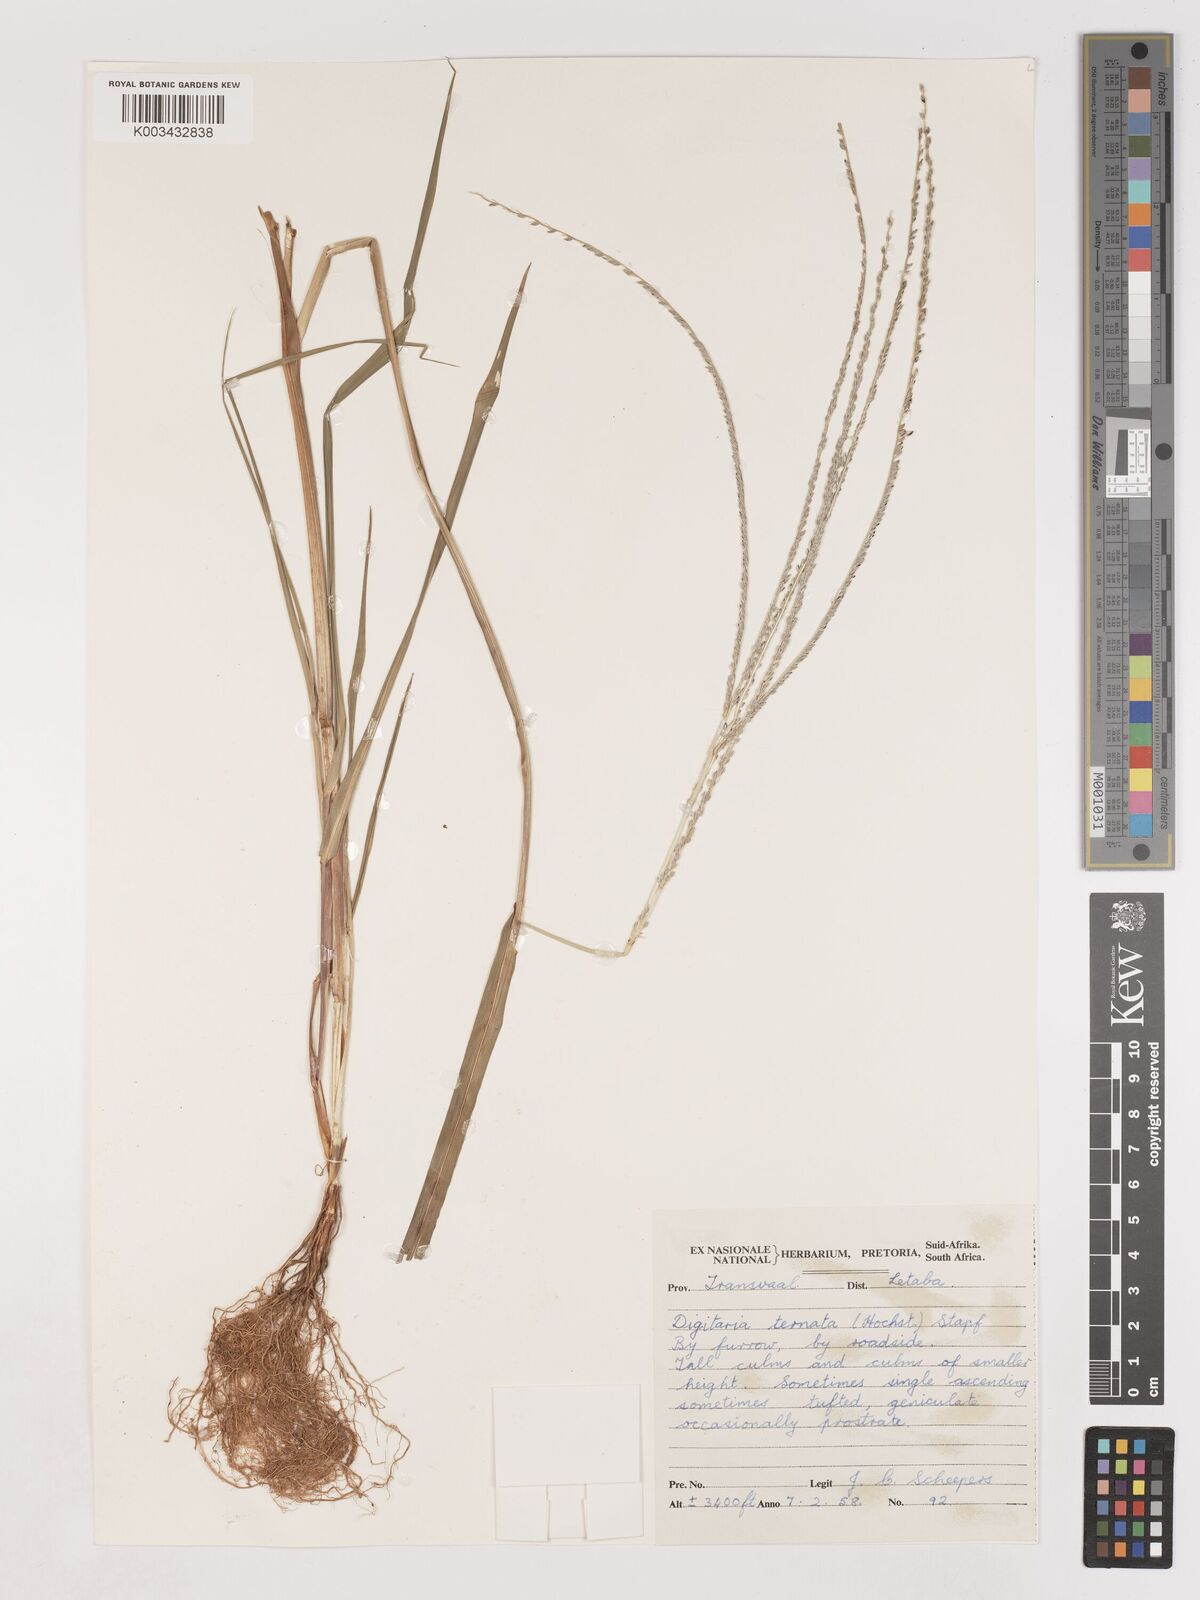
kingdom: Plantae
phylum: Tracheophyta
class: Liliopsida
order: Poales
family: Poaceae
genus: Digitaria
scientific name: Digitaria ternata
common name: Blackseed crabgrass
